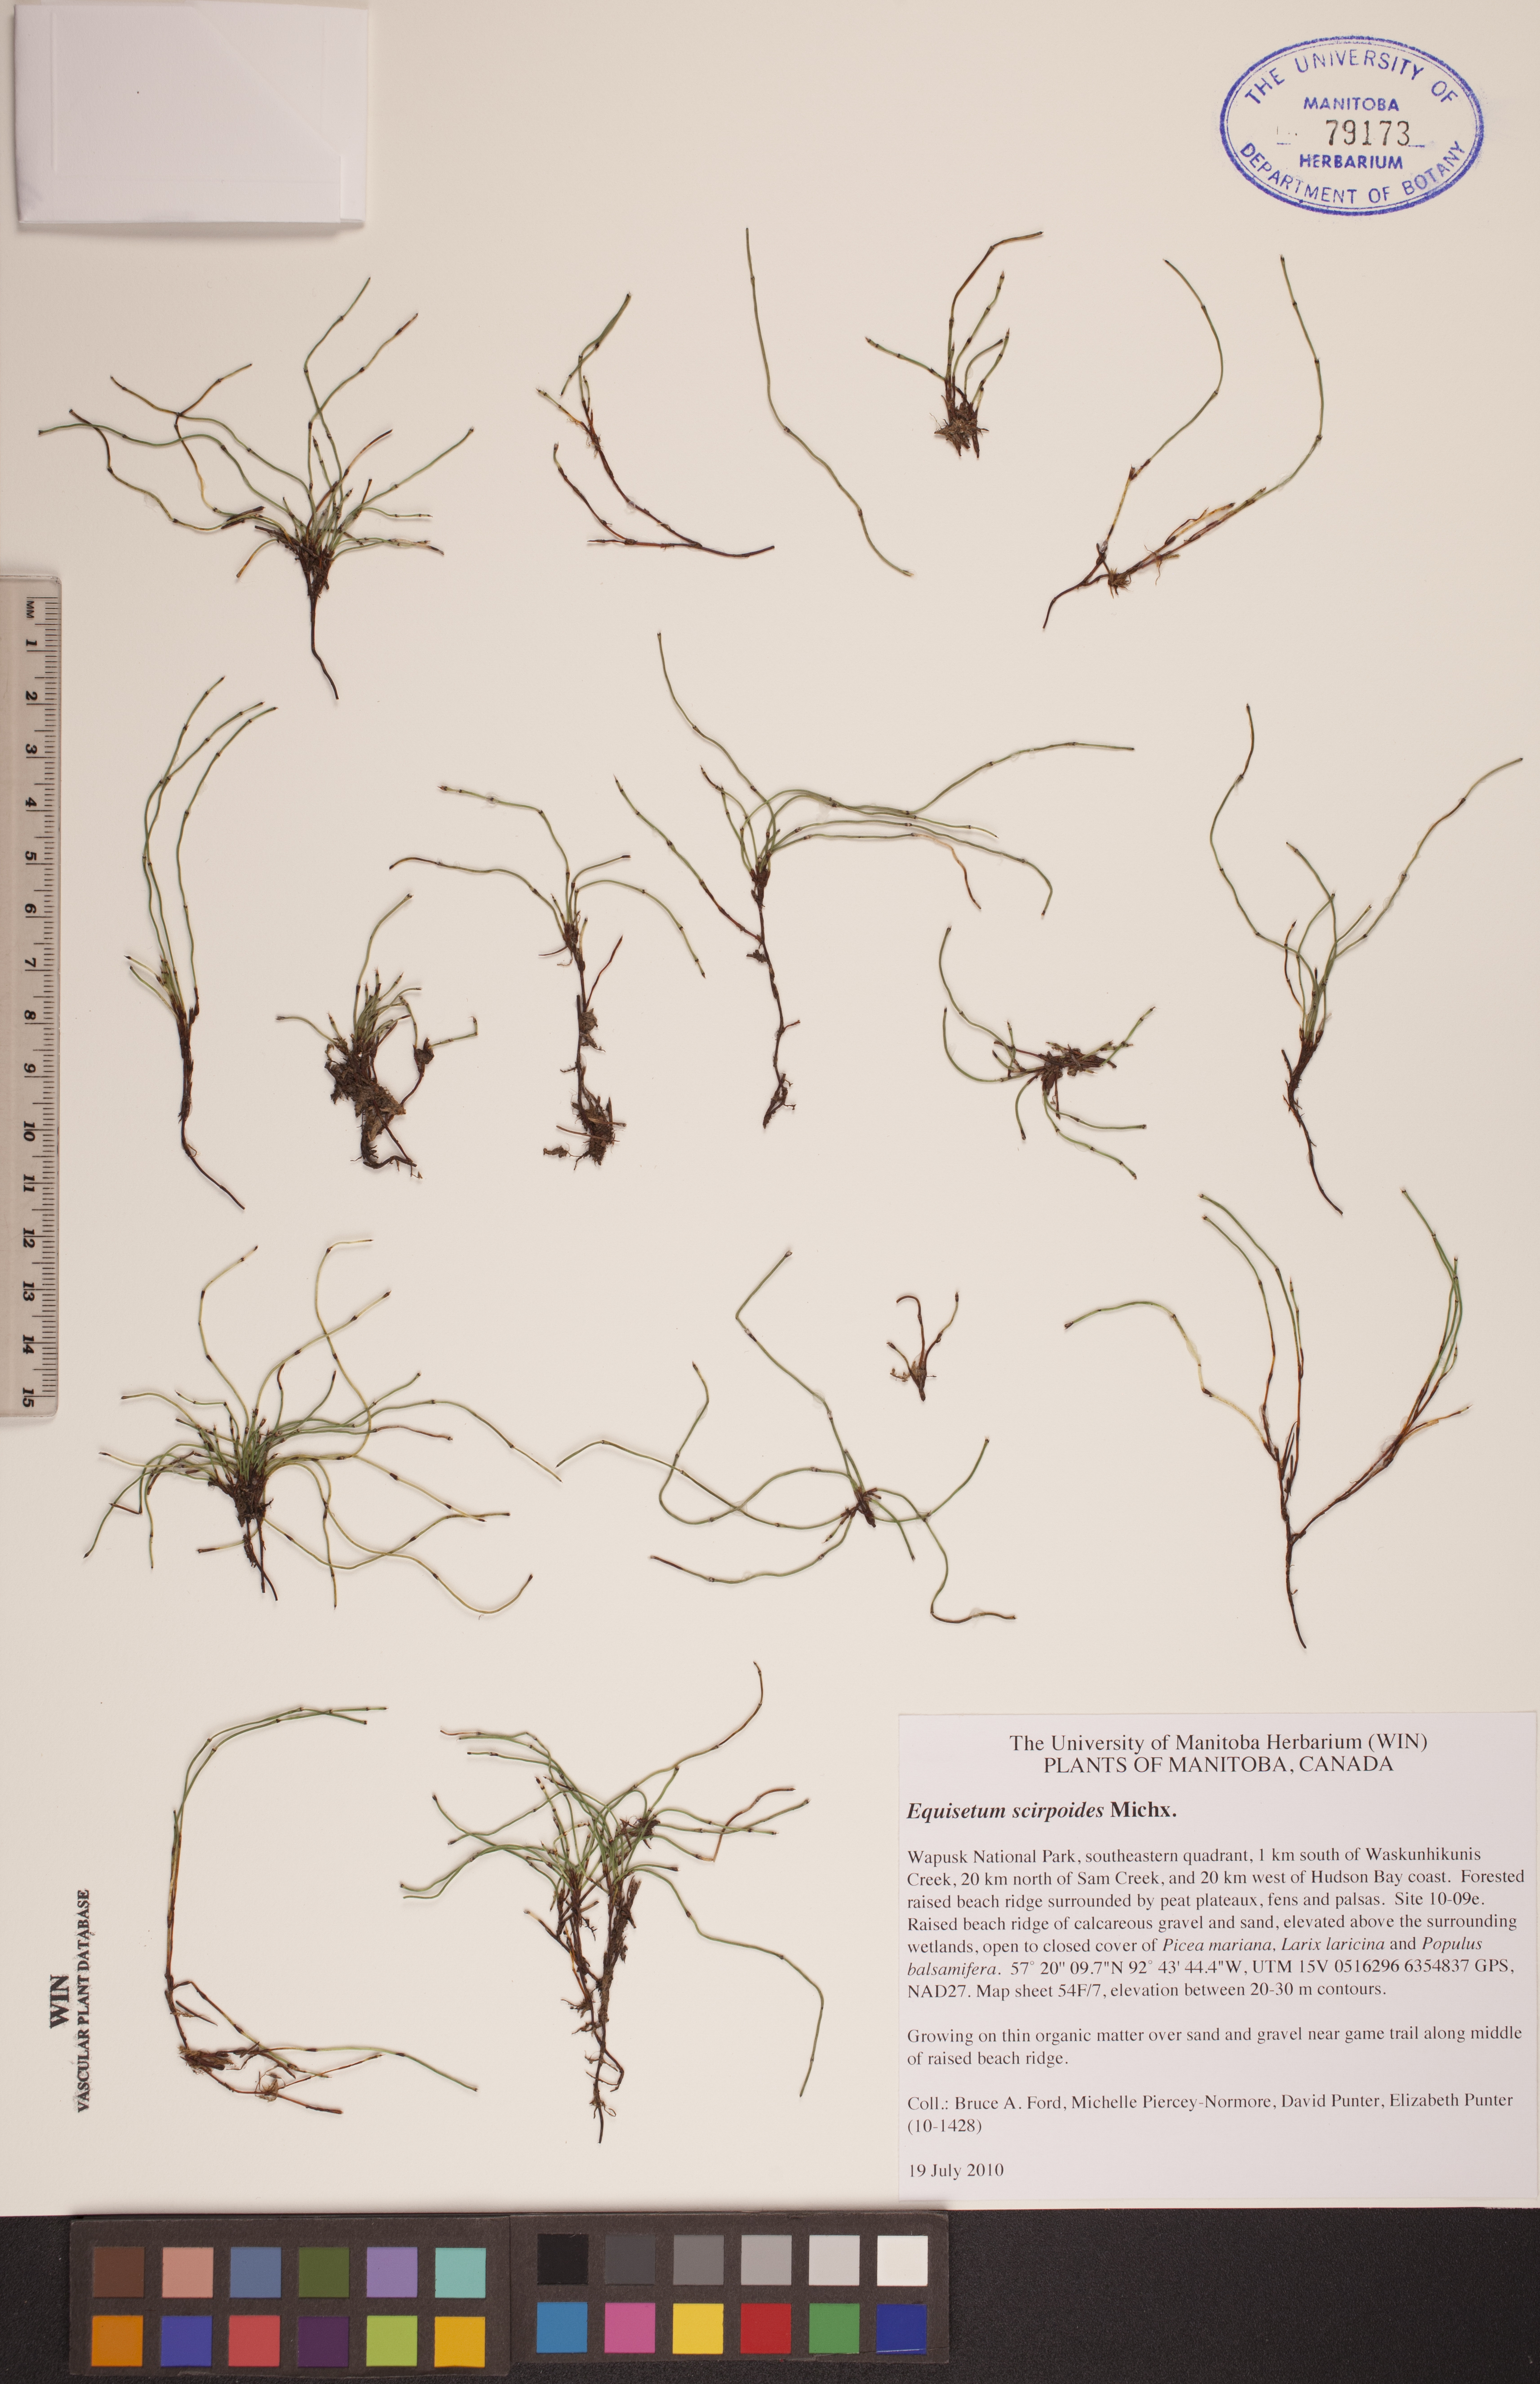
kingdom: Plantae
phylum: Tracheophyta
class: Polypodiopsida
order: Equisetales
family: Equisetaceae
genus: Equisetum
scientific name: Equisetum scirpoides
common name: Delicate horsetail
